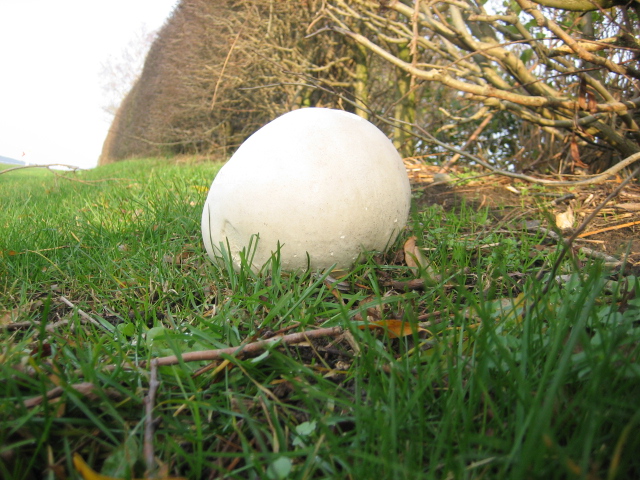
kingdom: Fungi
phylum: Basidiomycota
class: Agaricomycetes
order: Agaricales
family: Lycoperdaceae
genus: Calvatia
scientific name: Calvatia gigantea
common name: kæmpestøvbold
